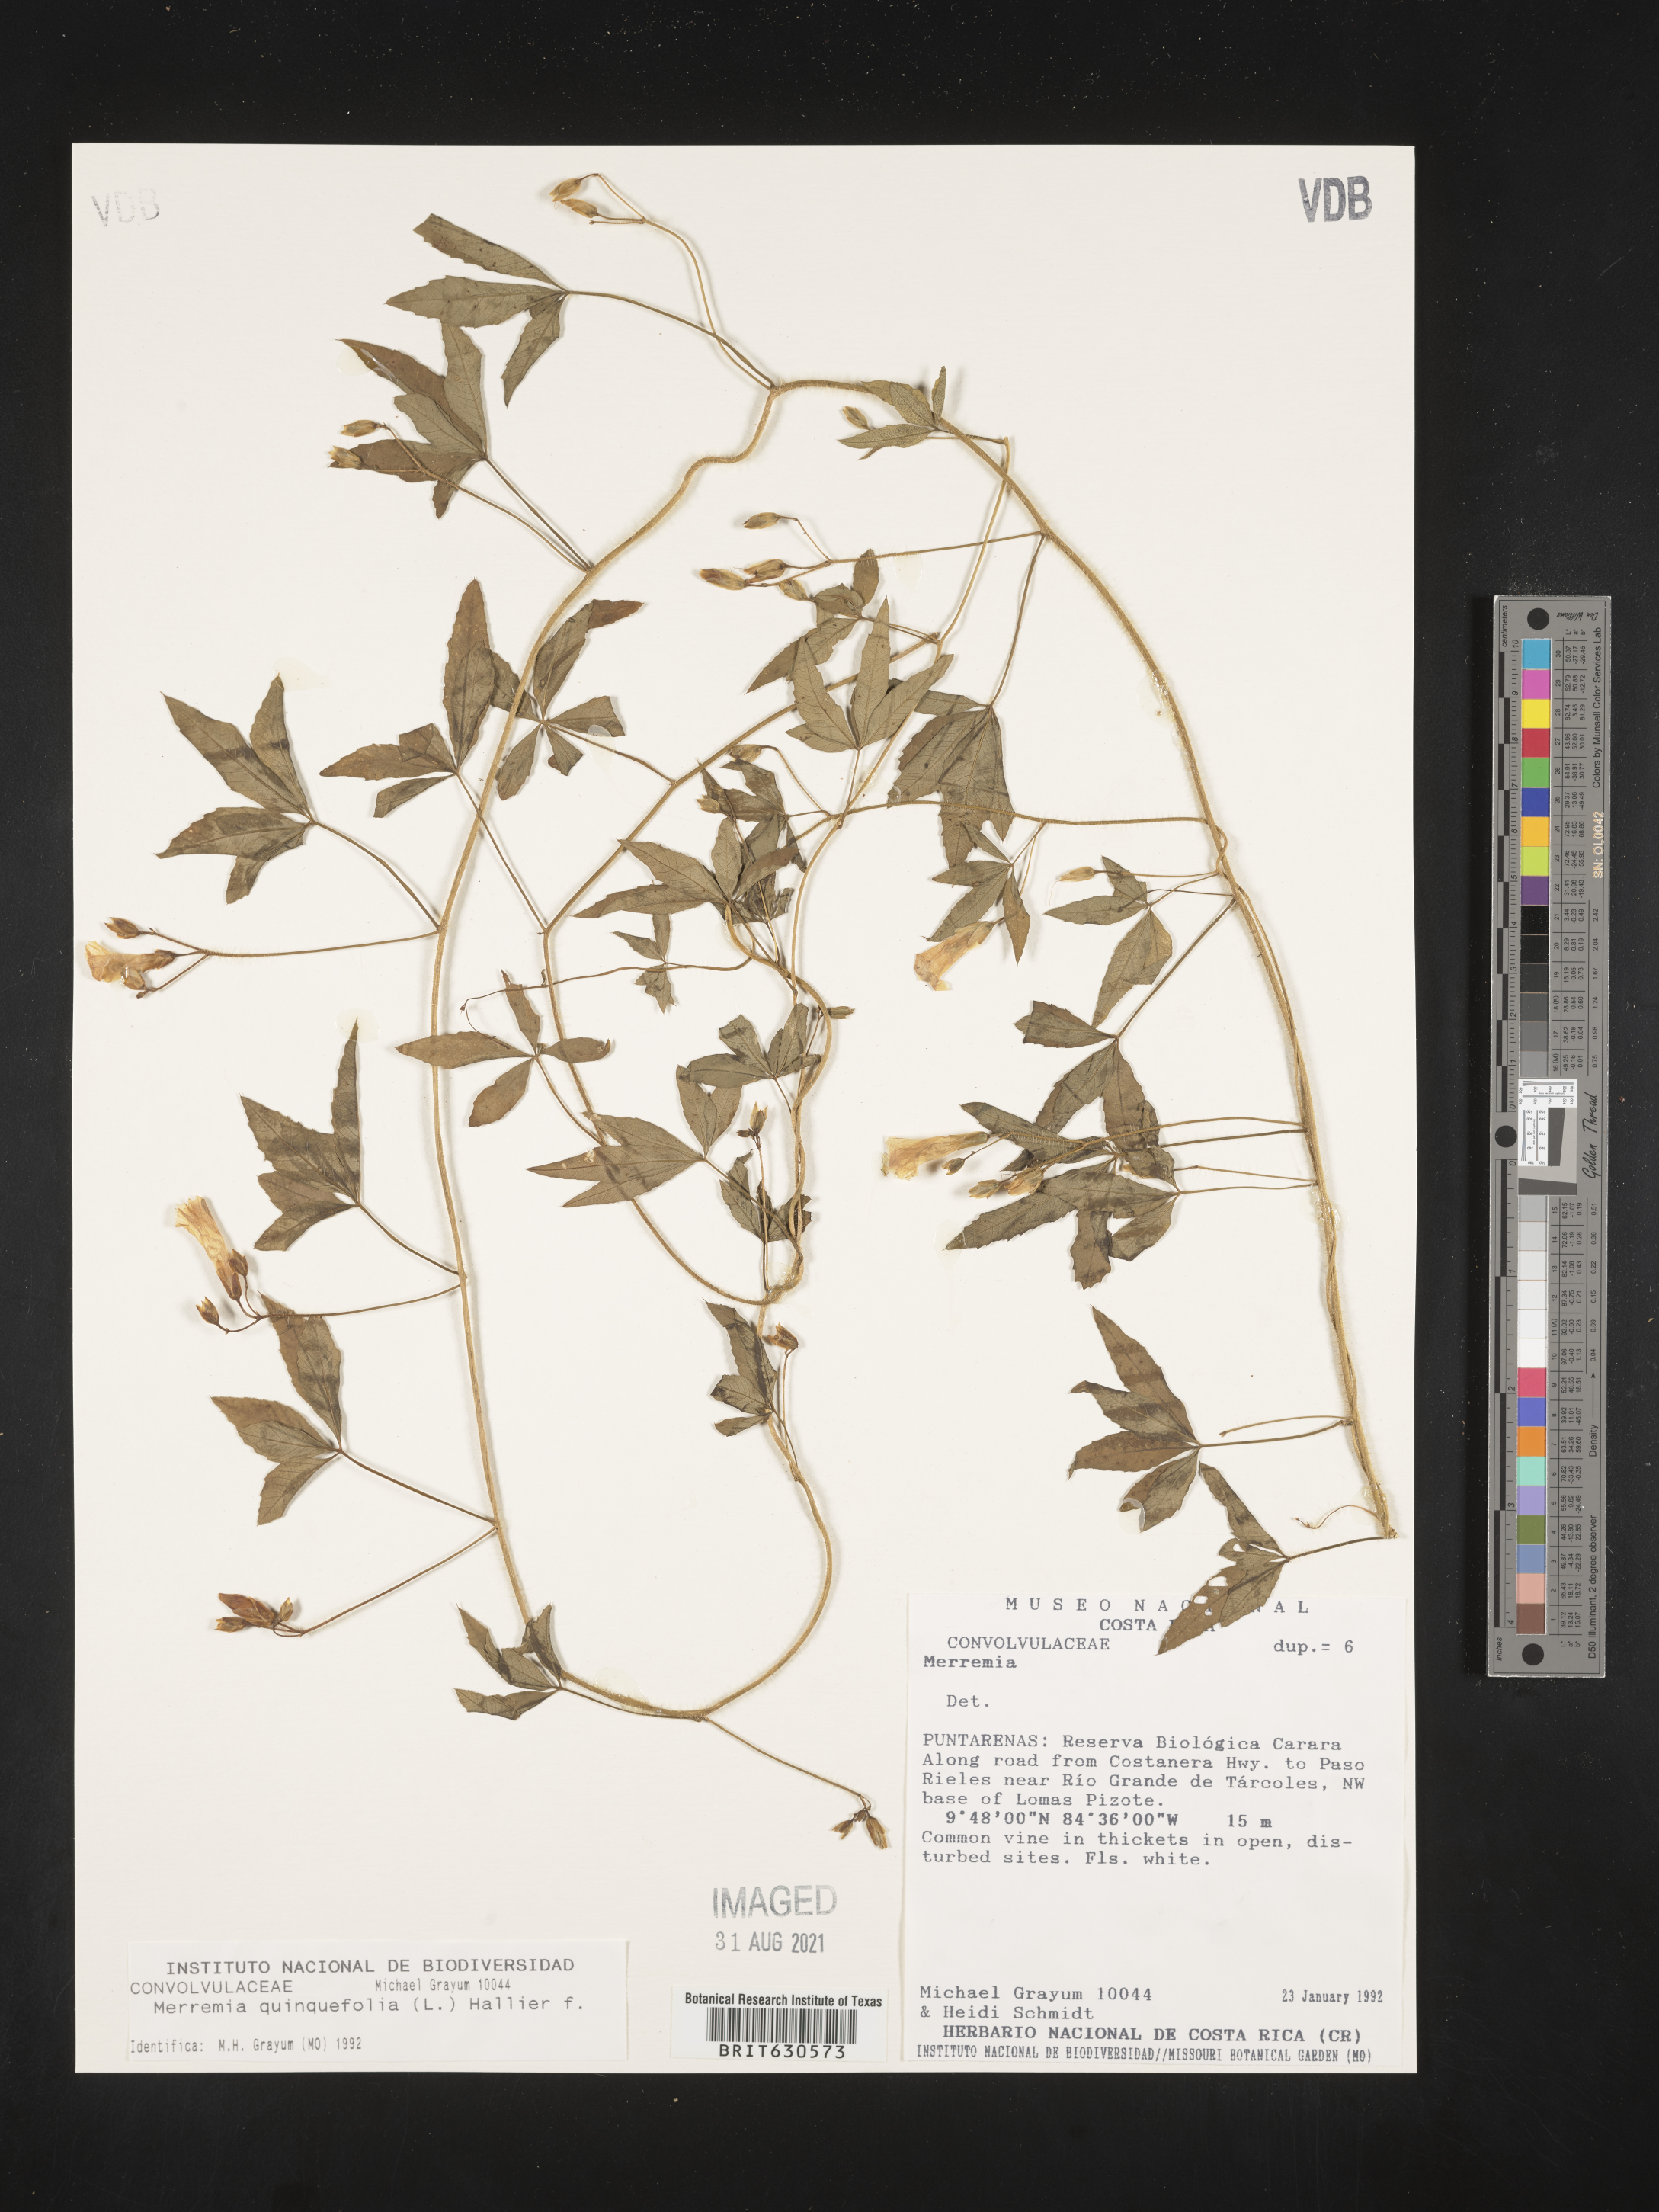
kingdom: Plantae
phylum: Tracheophyta
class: Magnoliopsida
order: Solanales
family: Convolvulaceae
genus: Distimake
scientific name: Distimake quinquefolius
